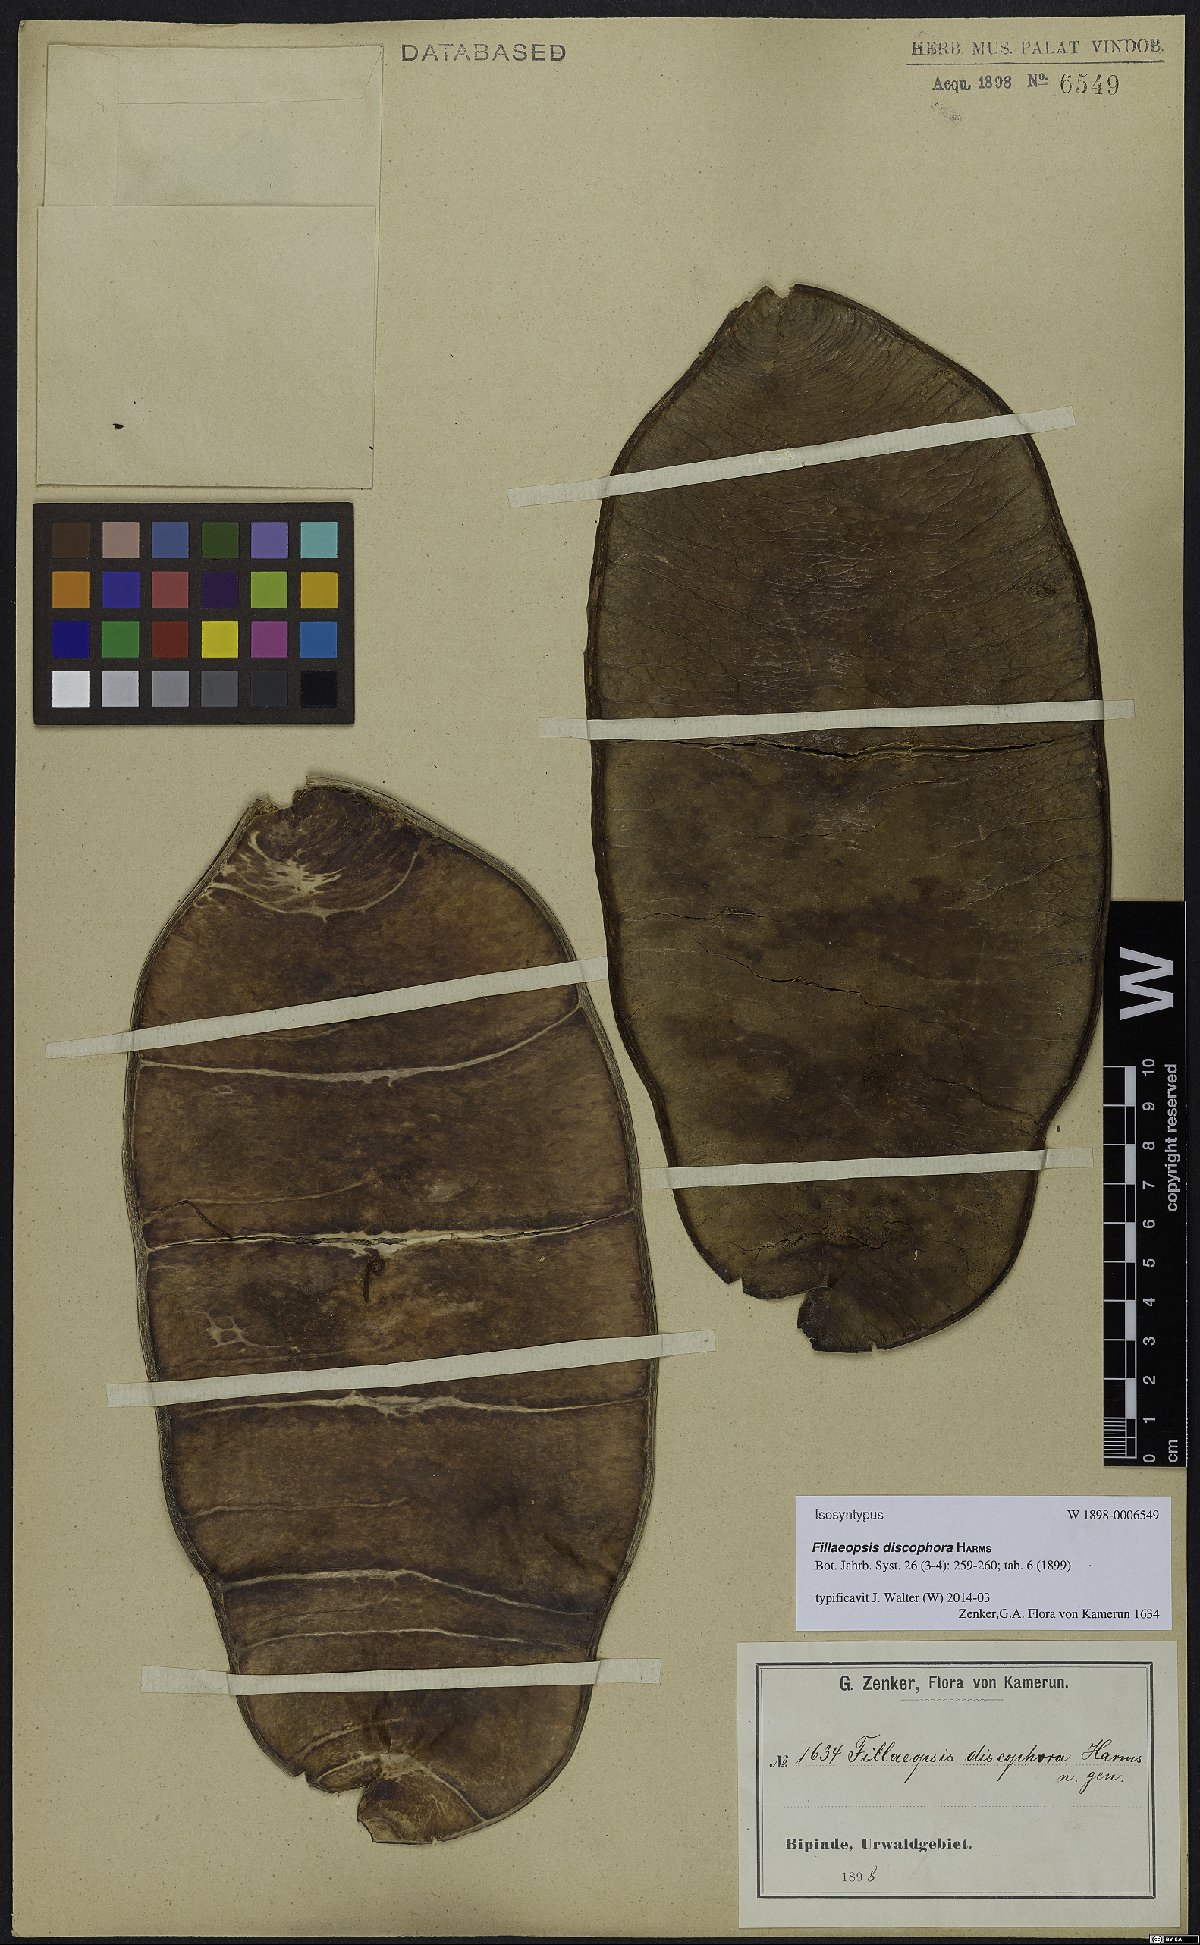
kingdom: Plantae
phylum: Tracheophyta
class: Magnoliopsida
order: Fabales
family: Fabaceae
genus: Fillaeopsis
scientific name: Fillaeopsis discophora
